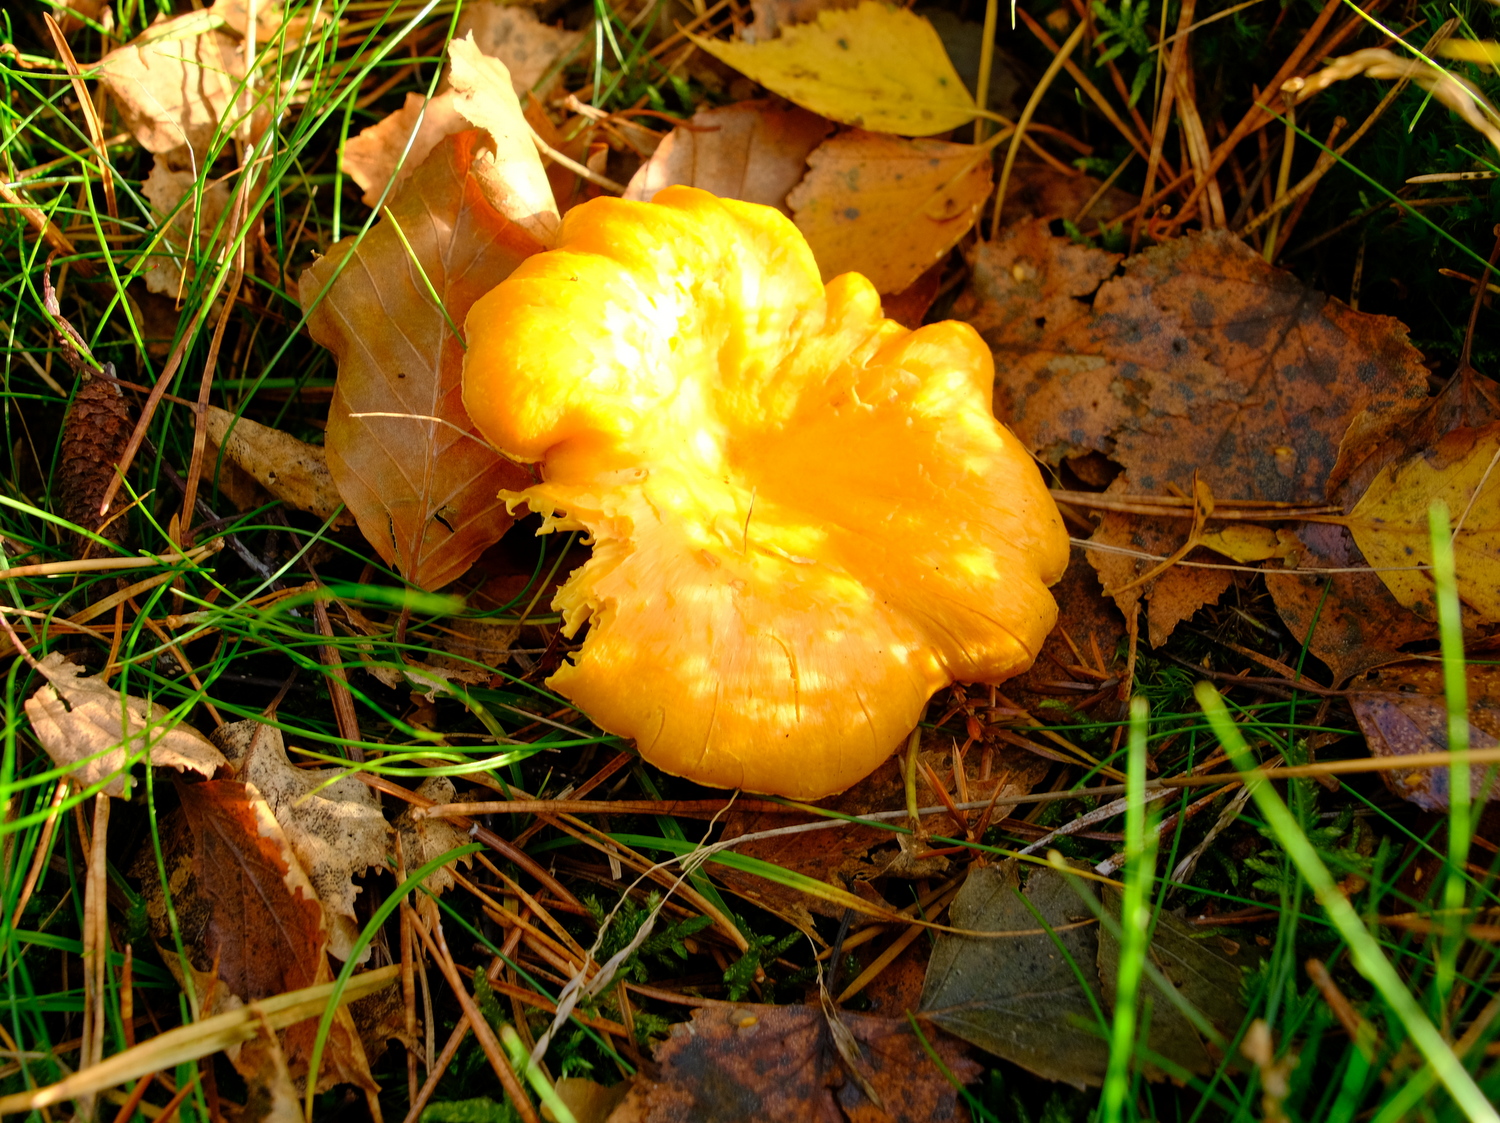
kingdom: Fungi
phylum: Basidiomycota
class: Agaricomycetes
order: Cantharellales
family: Hydnaceae
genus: Cantharellus
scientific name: Cantharellus cibarius
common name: almindelig kantarel
